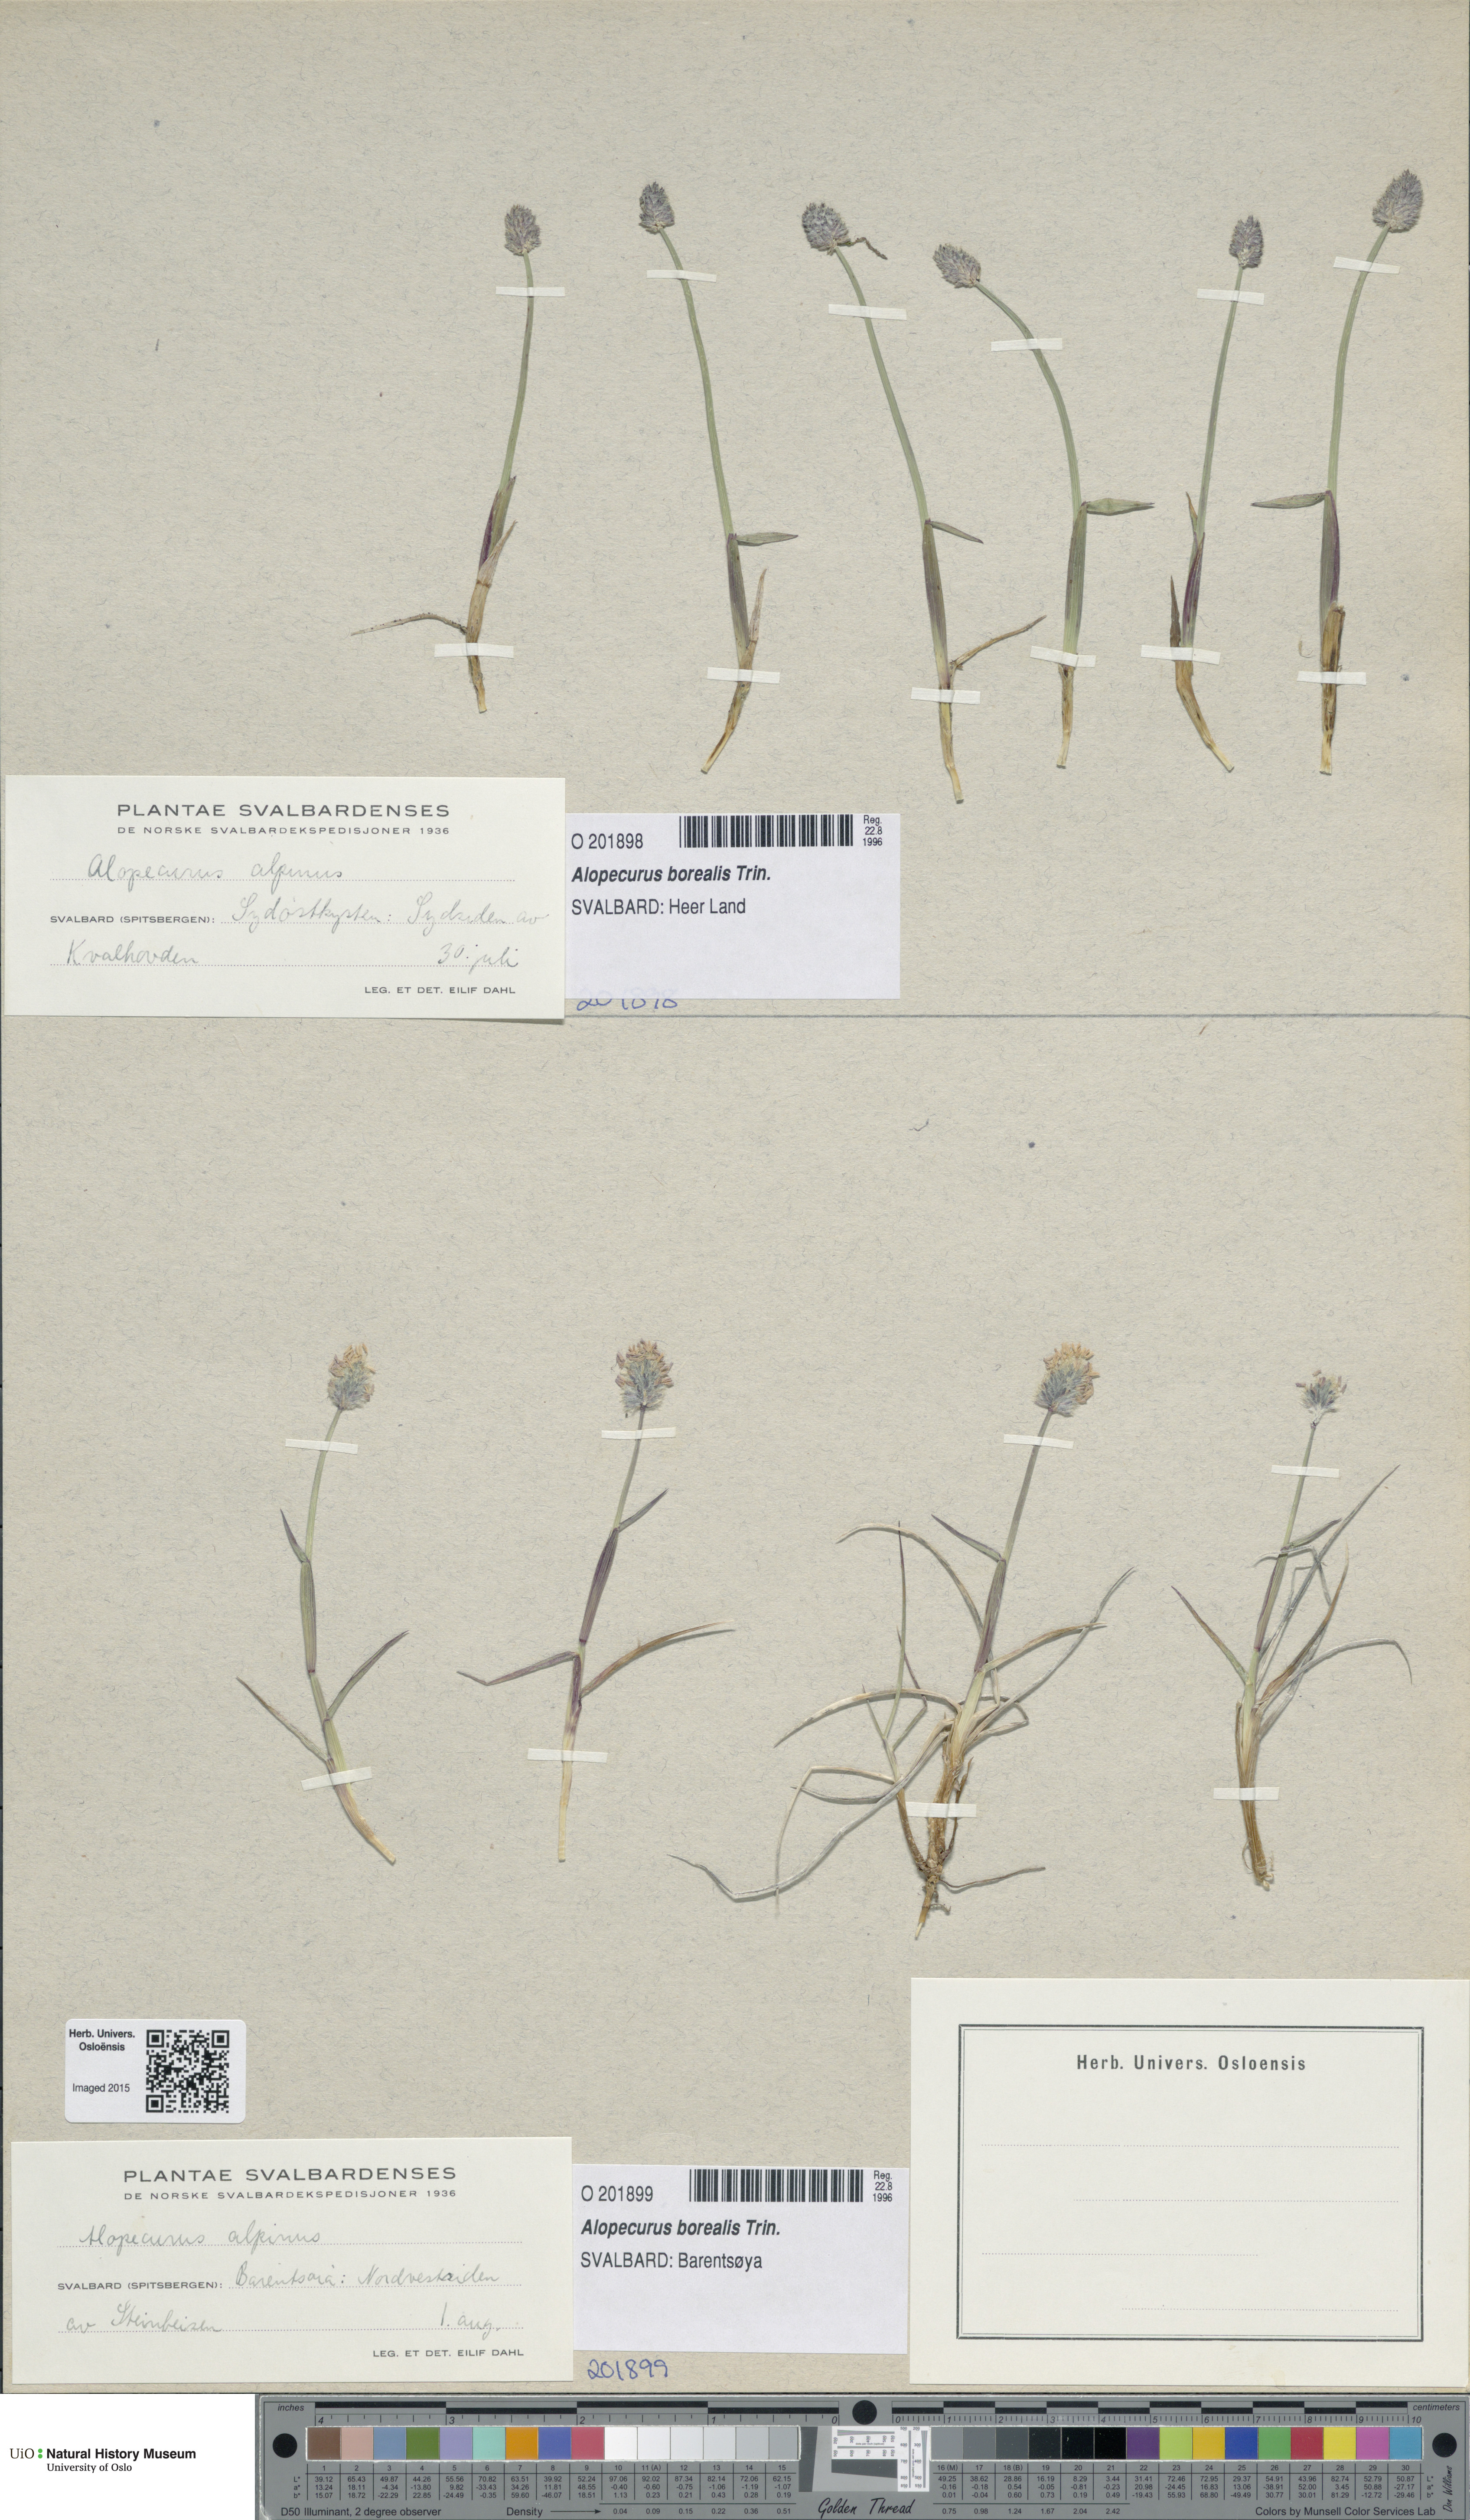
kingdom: Plantae
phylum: Tracheophyta
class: Liliopsida
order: Poales
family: Poaceae
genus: Alopecurus
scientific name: Alopecurus magellanicus
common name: Alpine foxtail
